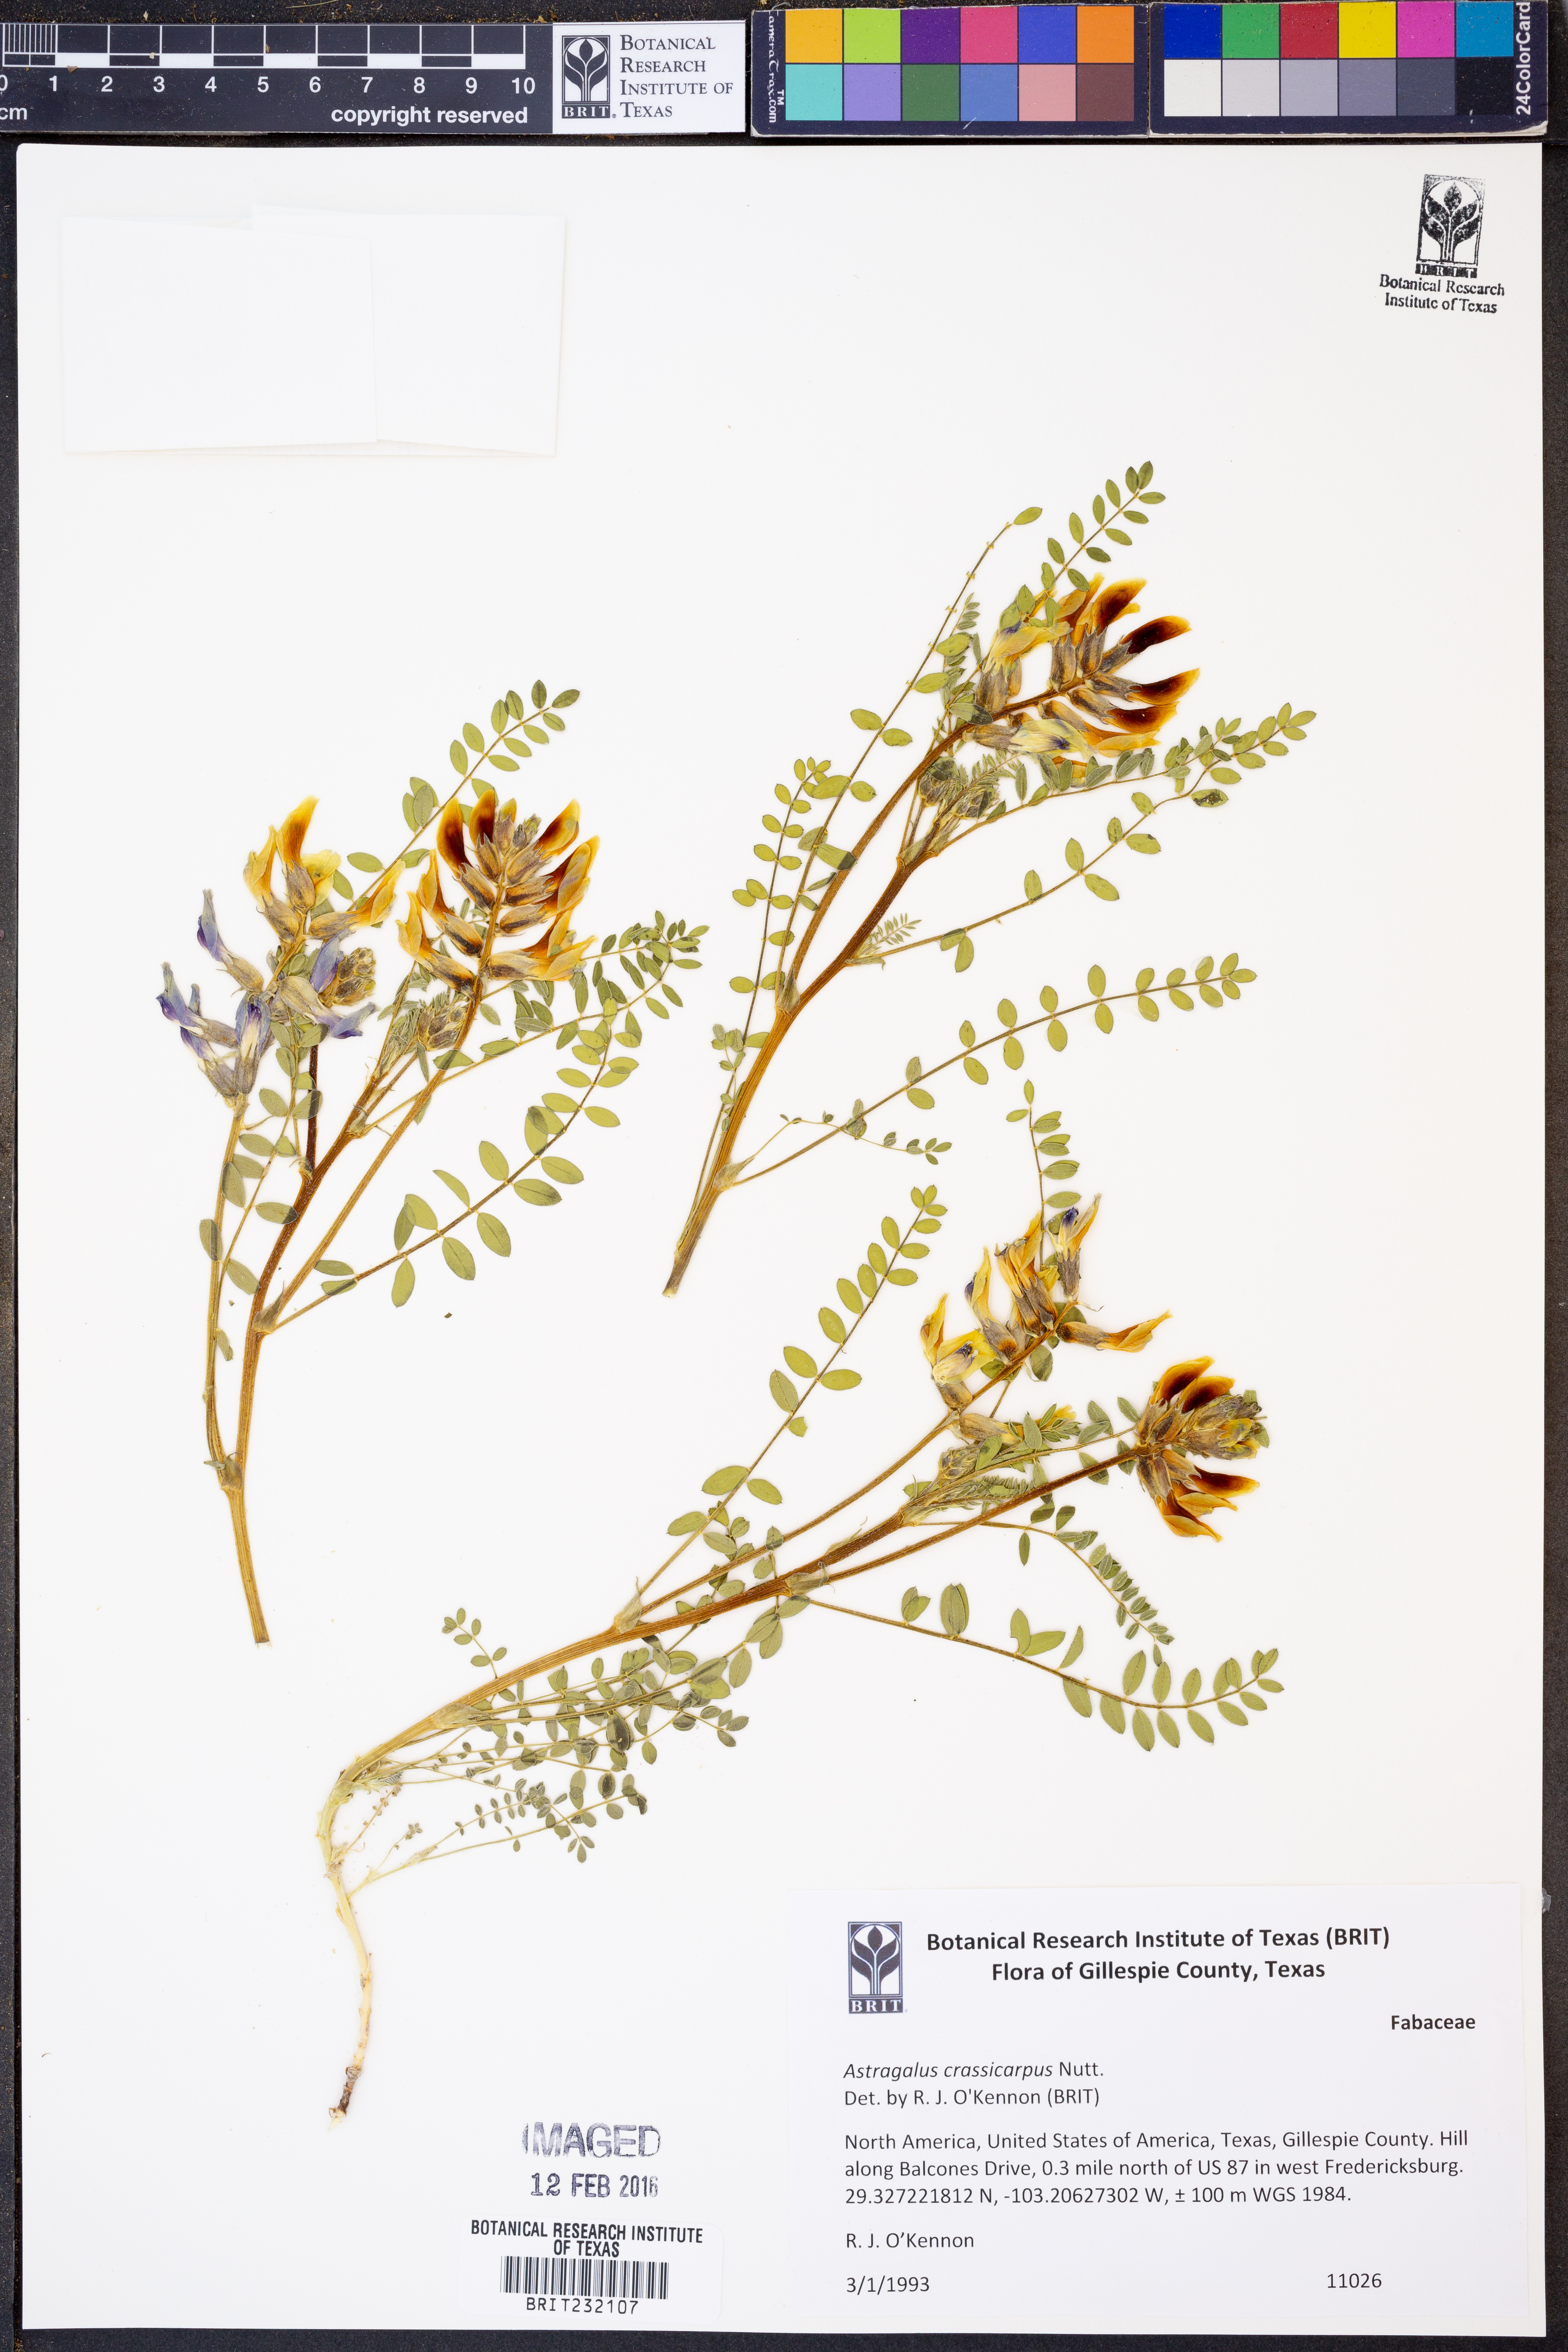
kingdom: Plantae
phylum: Tracheophyta
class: Magnoliopsida
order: Fabales
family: Fabaceae
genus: Astragalus
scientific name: Astragalus crassicarpus
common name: Ground-plum milk-vetch
